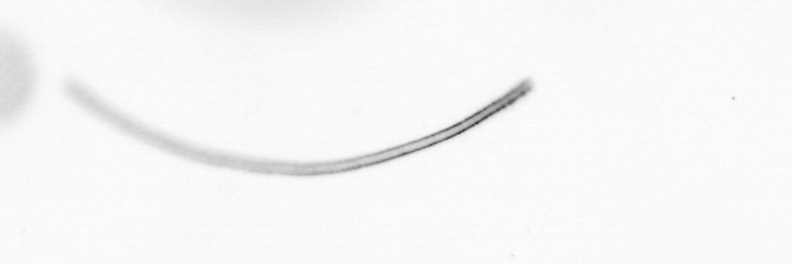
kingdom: Chromista
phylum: Ochrophyta
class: Bacillariophyceae
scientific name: Bacillariophyceae
